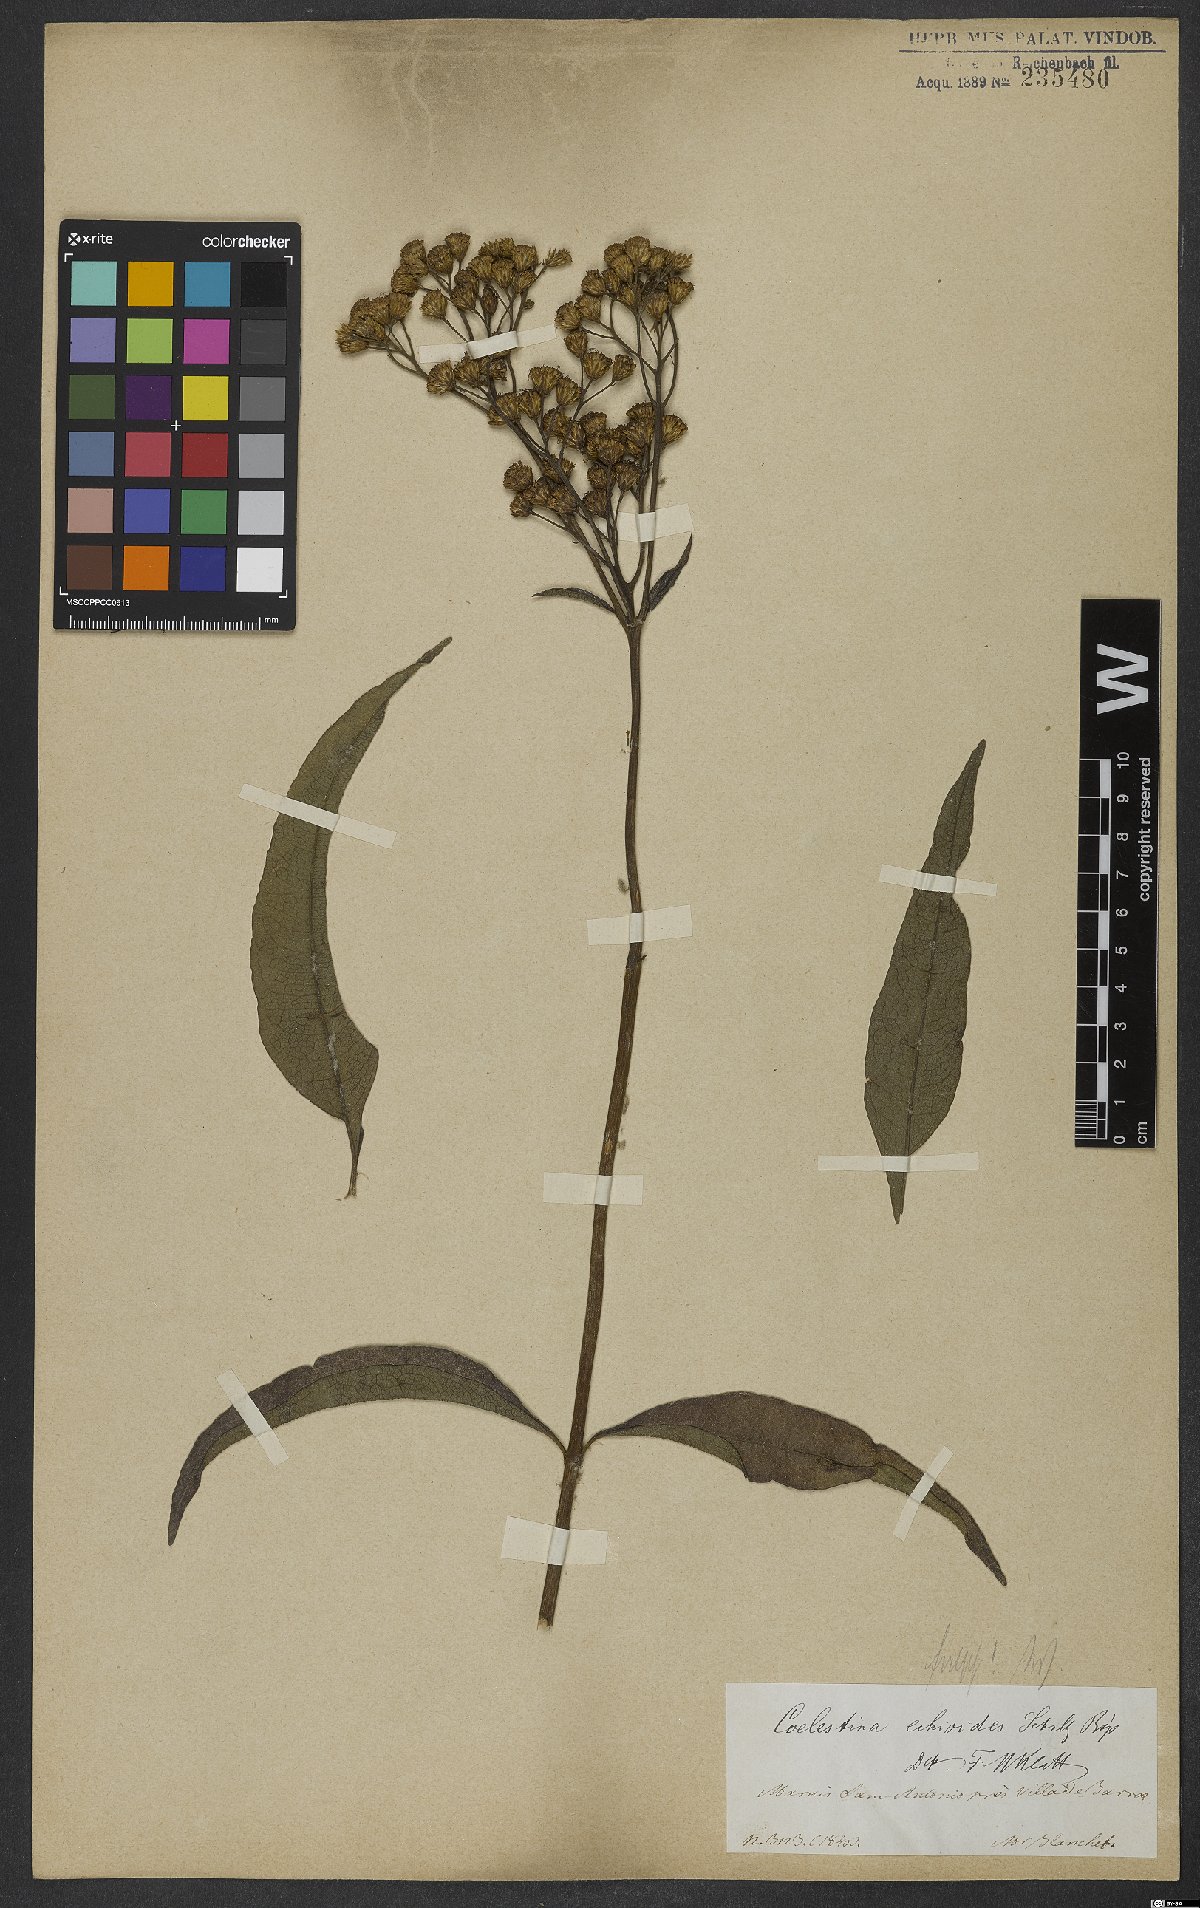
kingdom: Plantae
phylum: Tracheophyta
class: Magnoliopsida
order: Asterales
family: Asteraceae
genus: Ageratum
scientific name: Ageratum echioides
